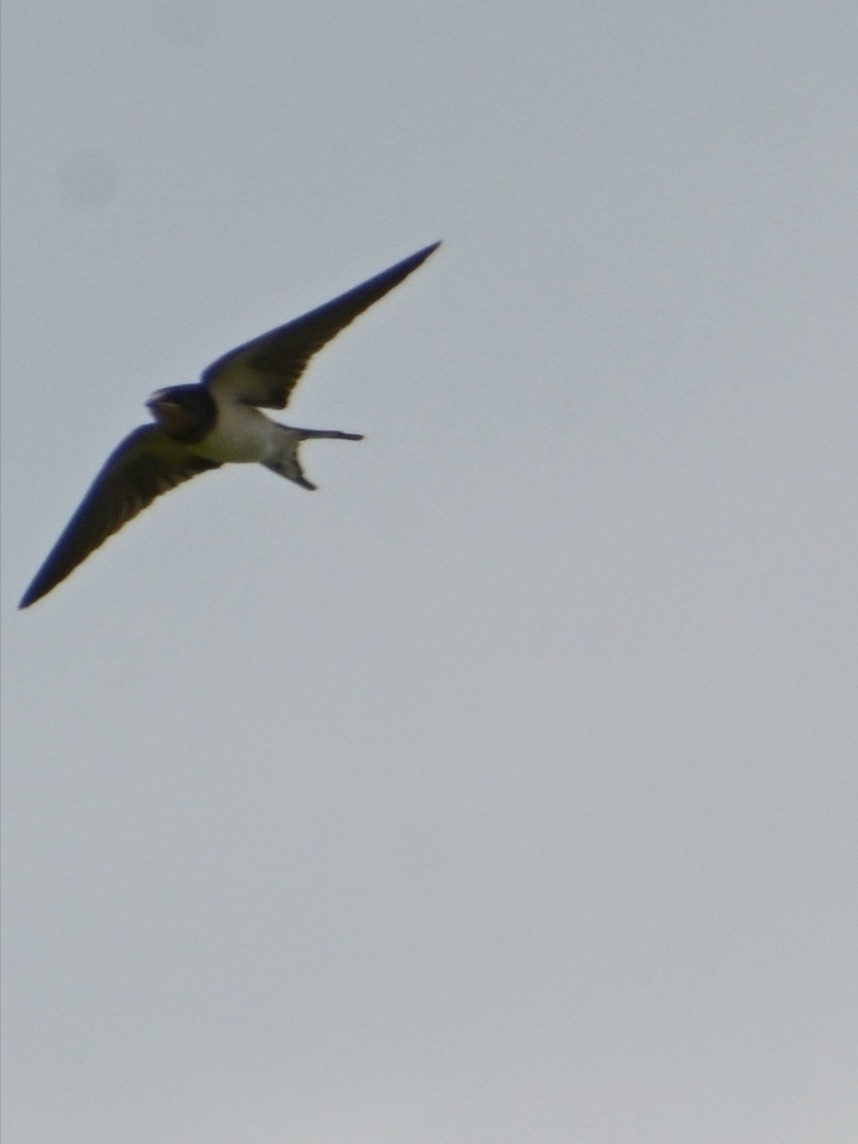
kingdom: Animalia
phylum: Chordata
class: Aves
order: Passeriformes
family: Hirundinidae
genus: Hirundo
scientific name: Hirundo rustica
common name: Landsvale
